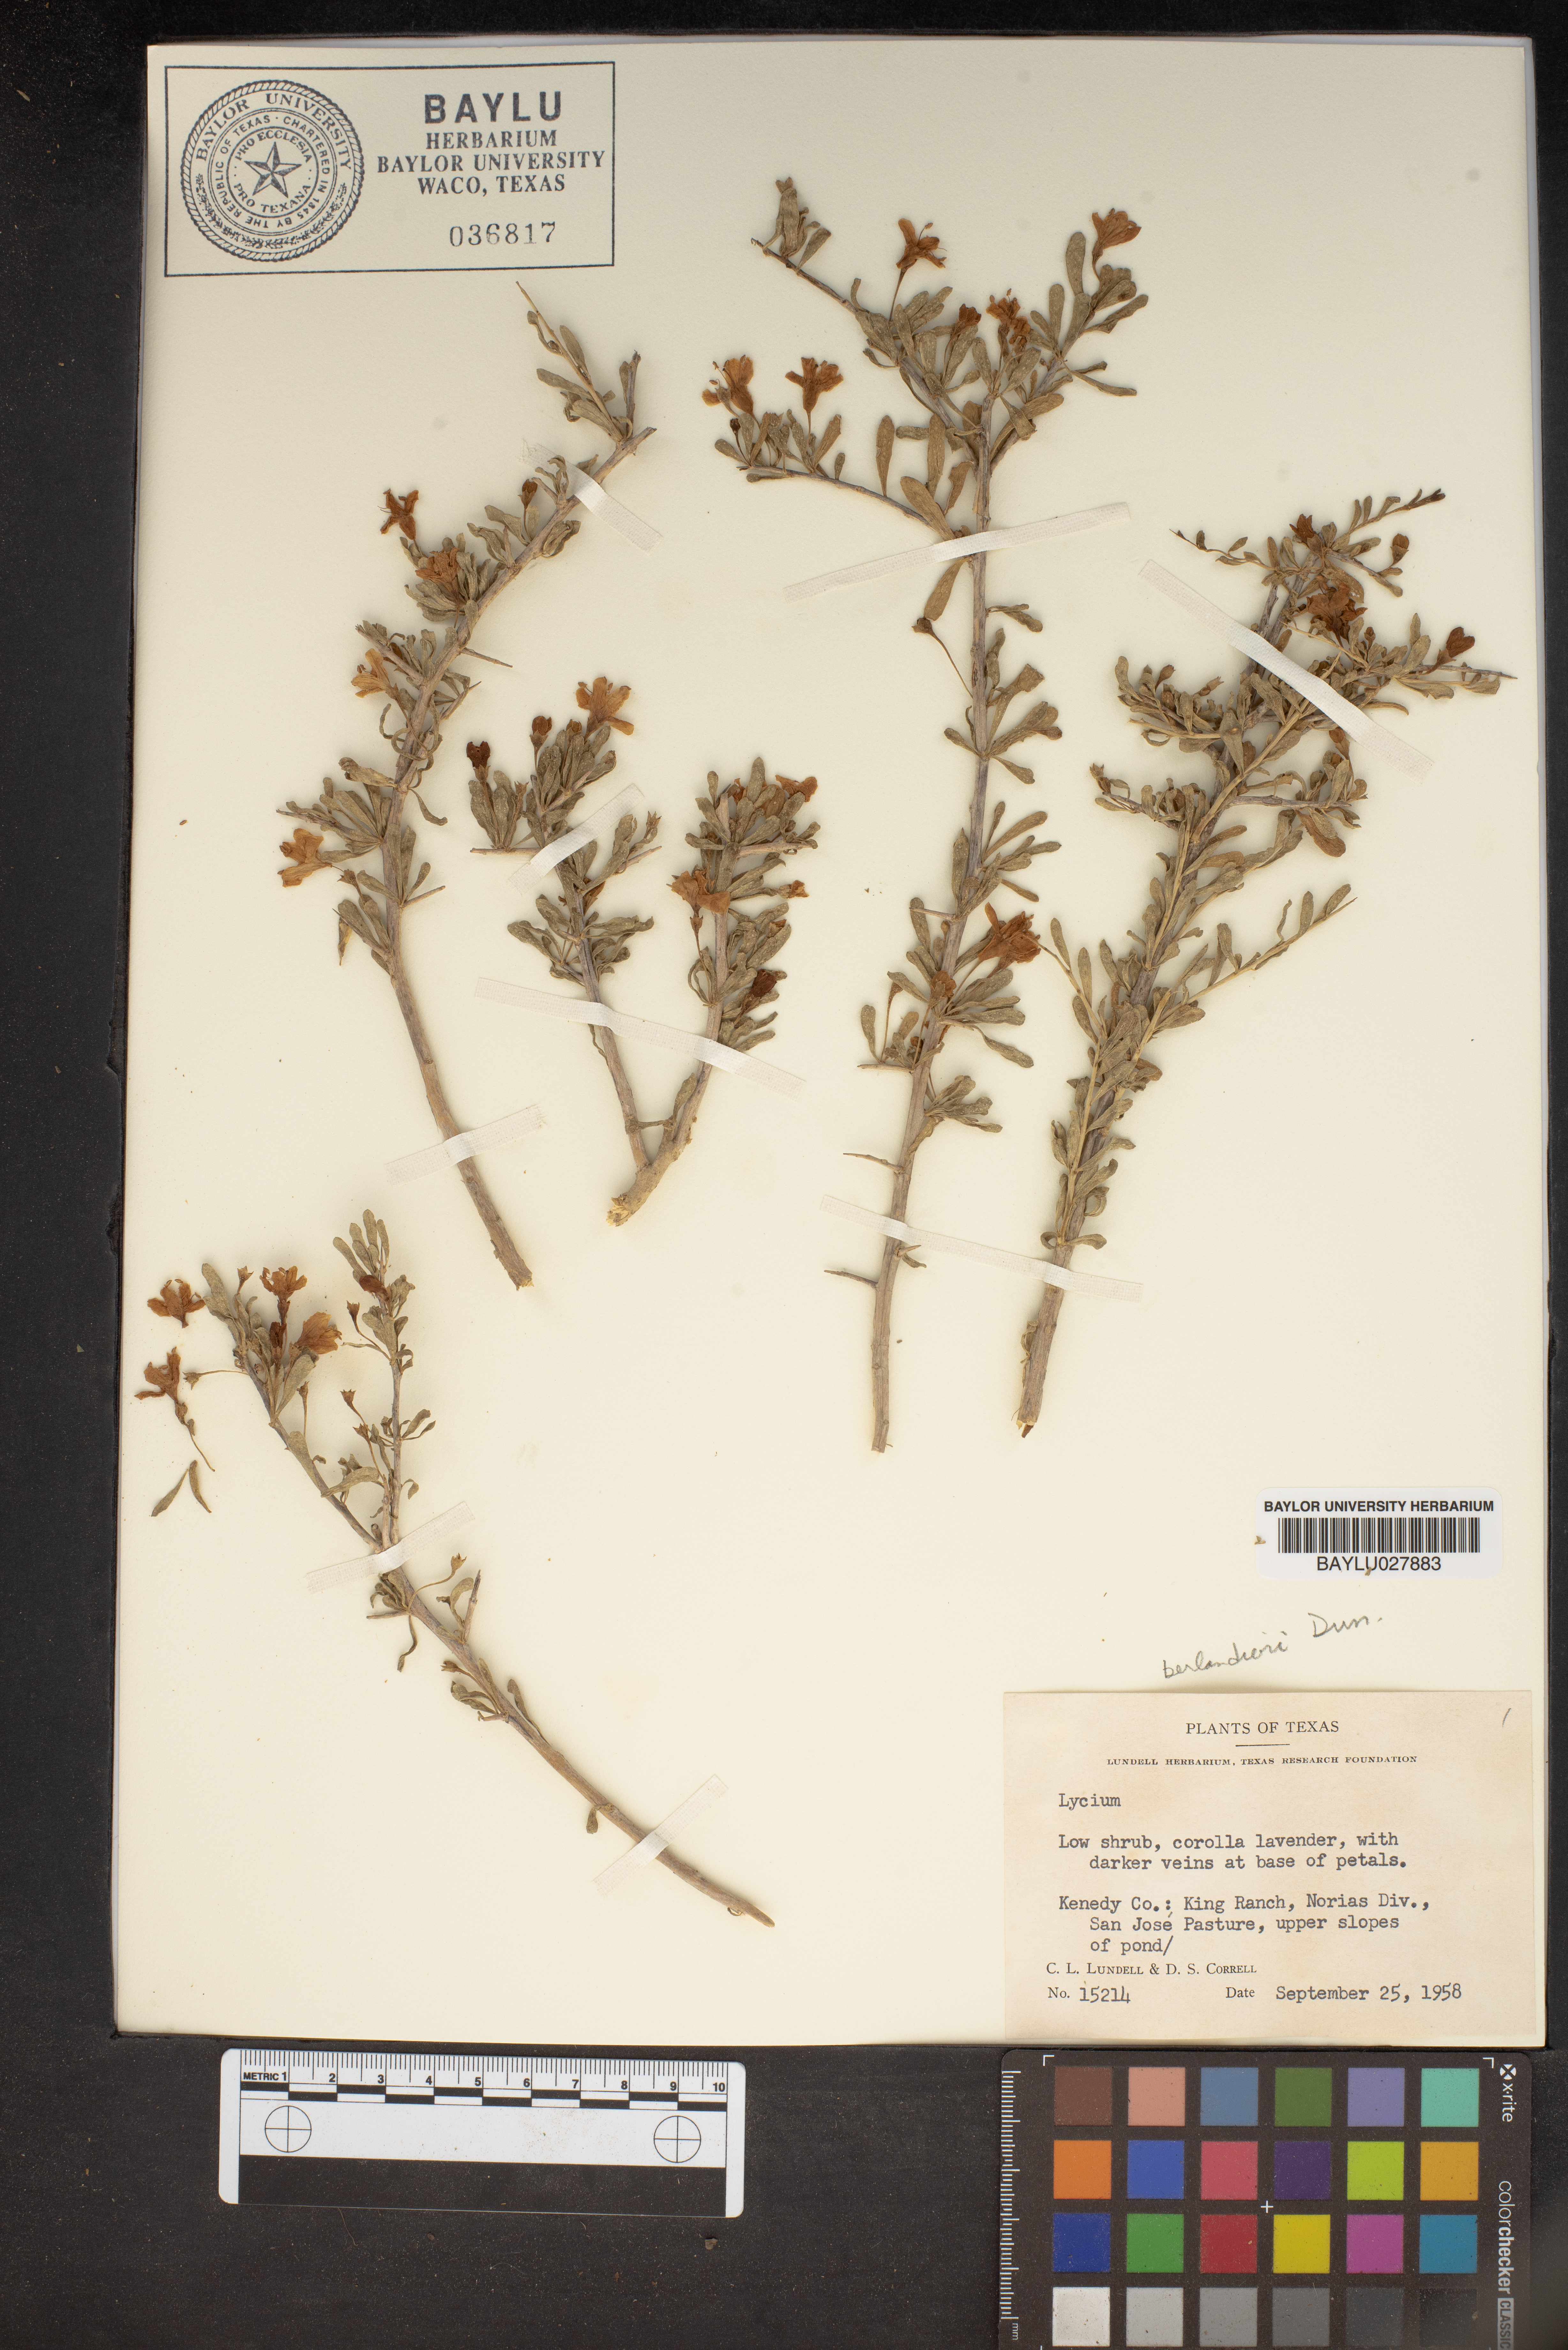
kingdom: Plantae
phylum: Tracheophyta
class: Magnoliopsida
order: Solanales
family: Solanaceae
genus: Lycium
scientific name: Lycium
